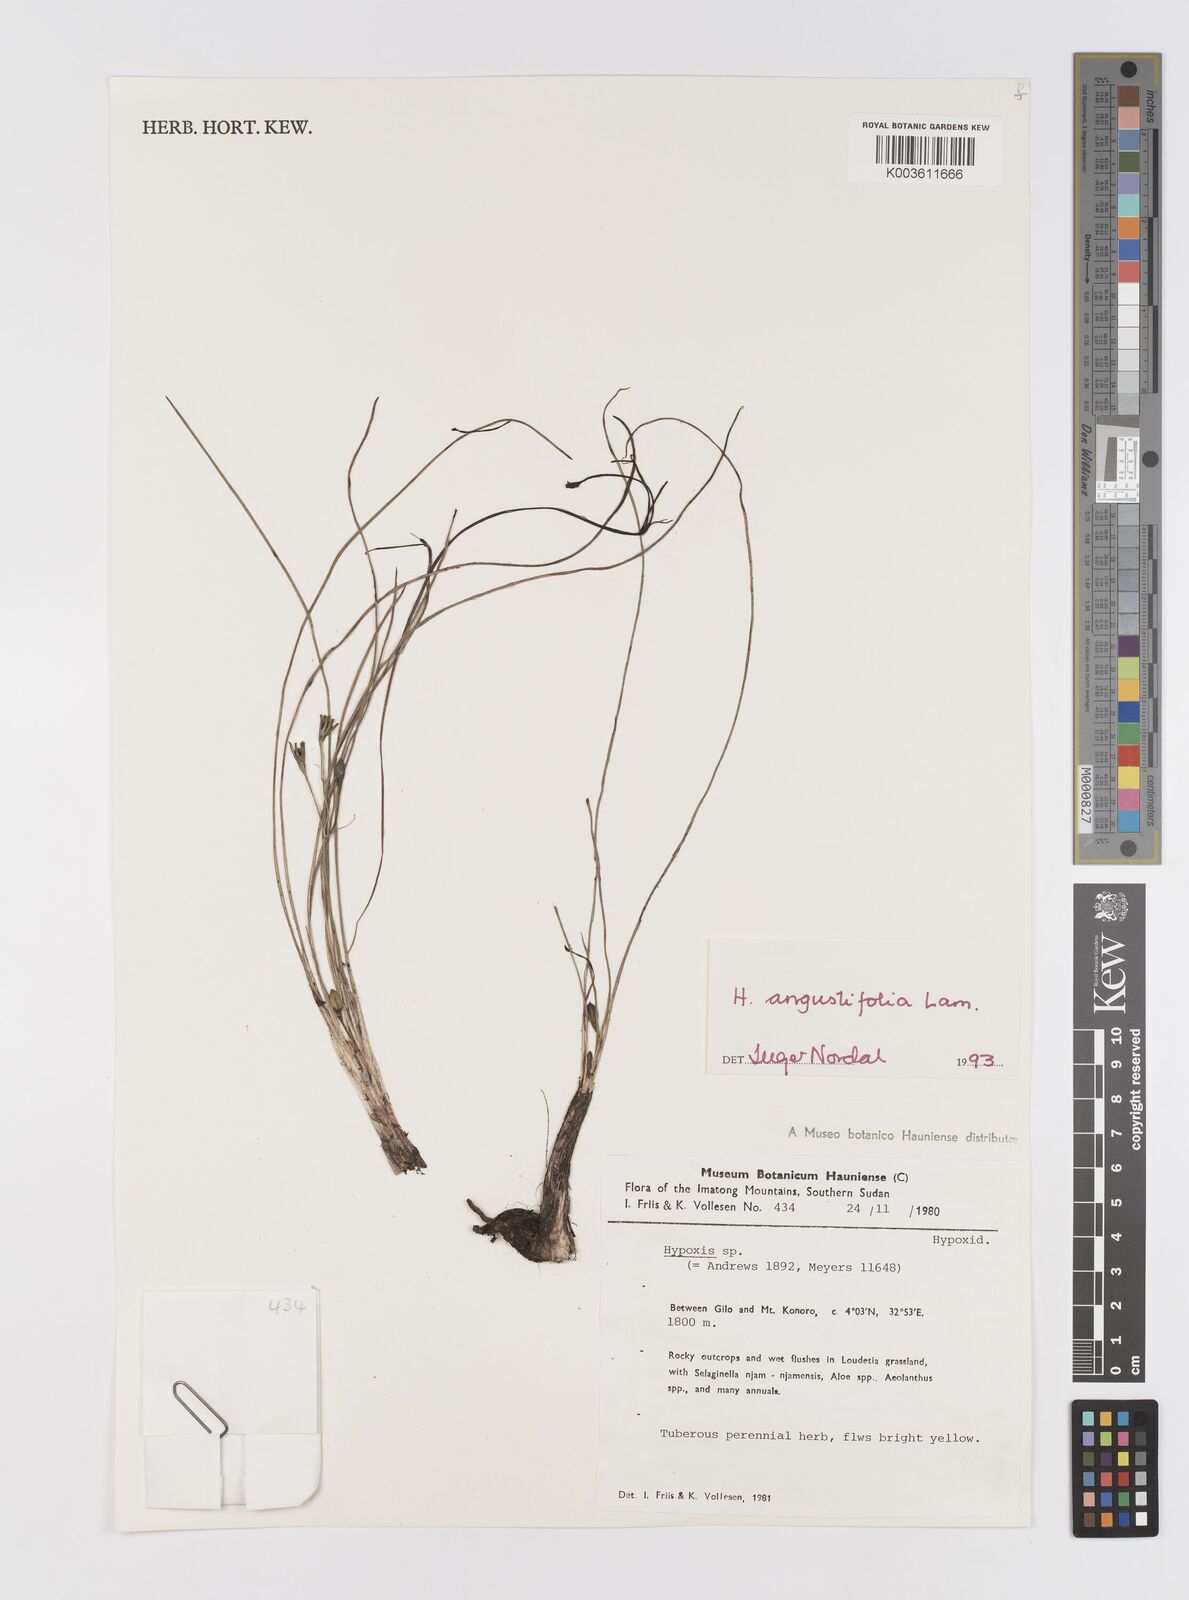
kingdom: Plantae
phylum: Tracheophyta
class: Liliopsida
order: Asparagales
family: Hypoxidaceae
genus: Hypoxis
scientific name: Hypoxis angustifolia
